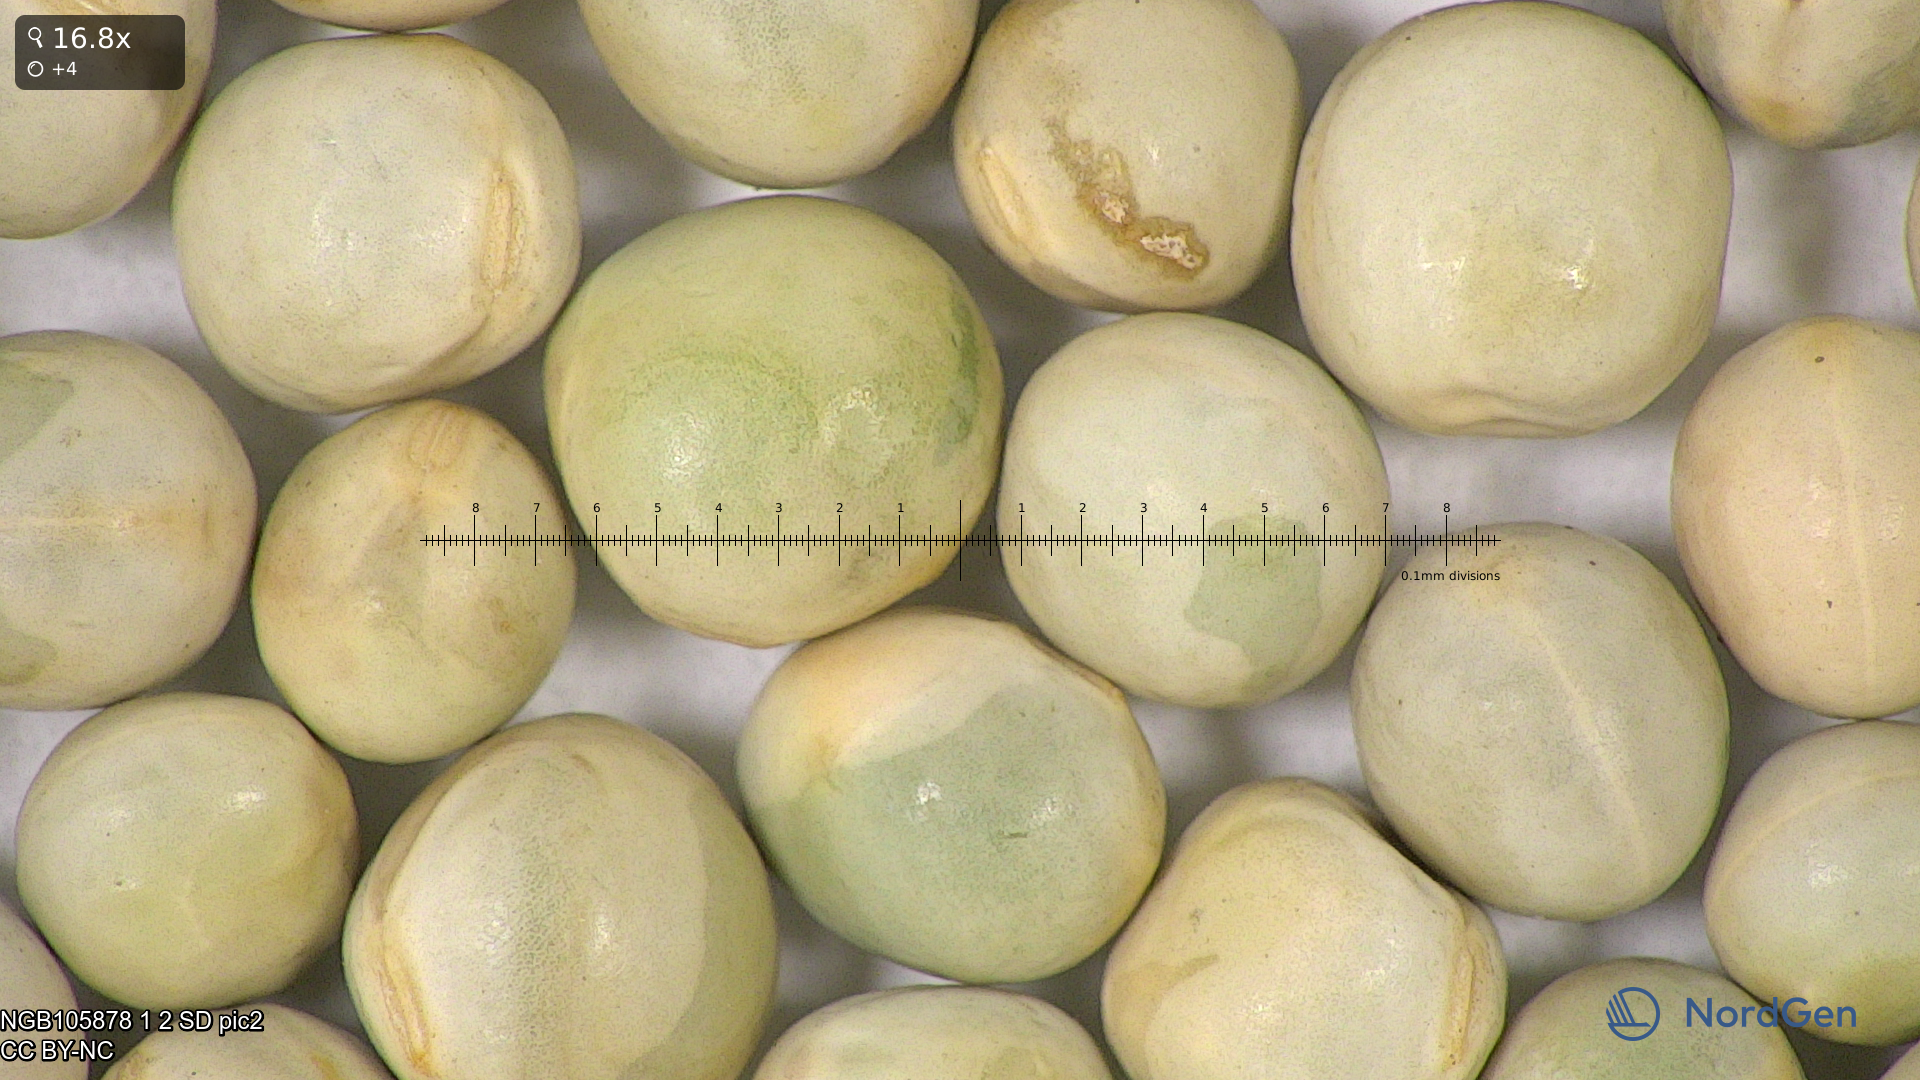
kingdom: Plantae
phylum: Tracheophyta
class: Magnoliopsida
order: Fabales
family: Fabaceae
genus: Lathyrus
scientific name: Lathyrus oleraceus
